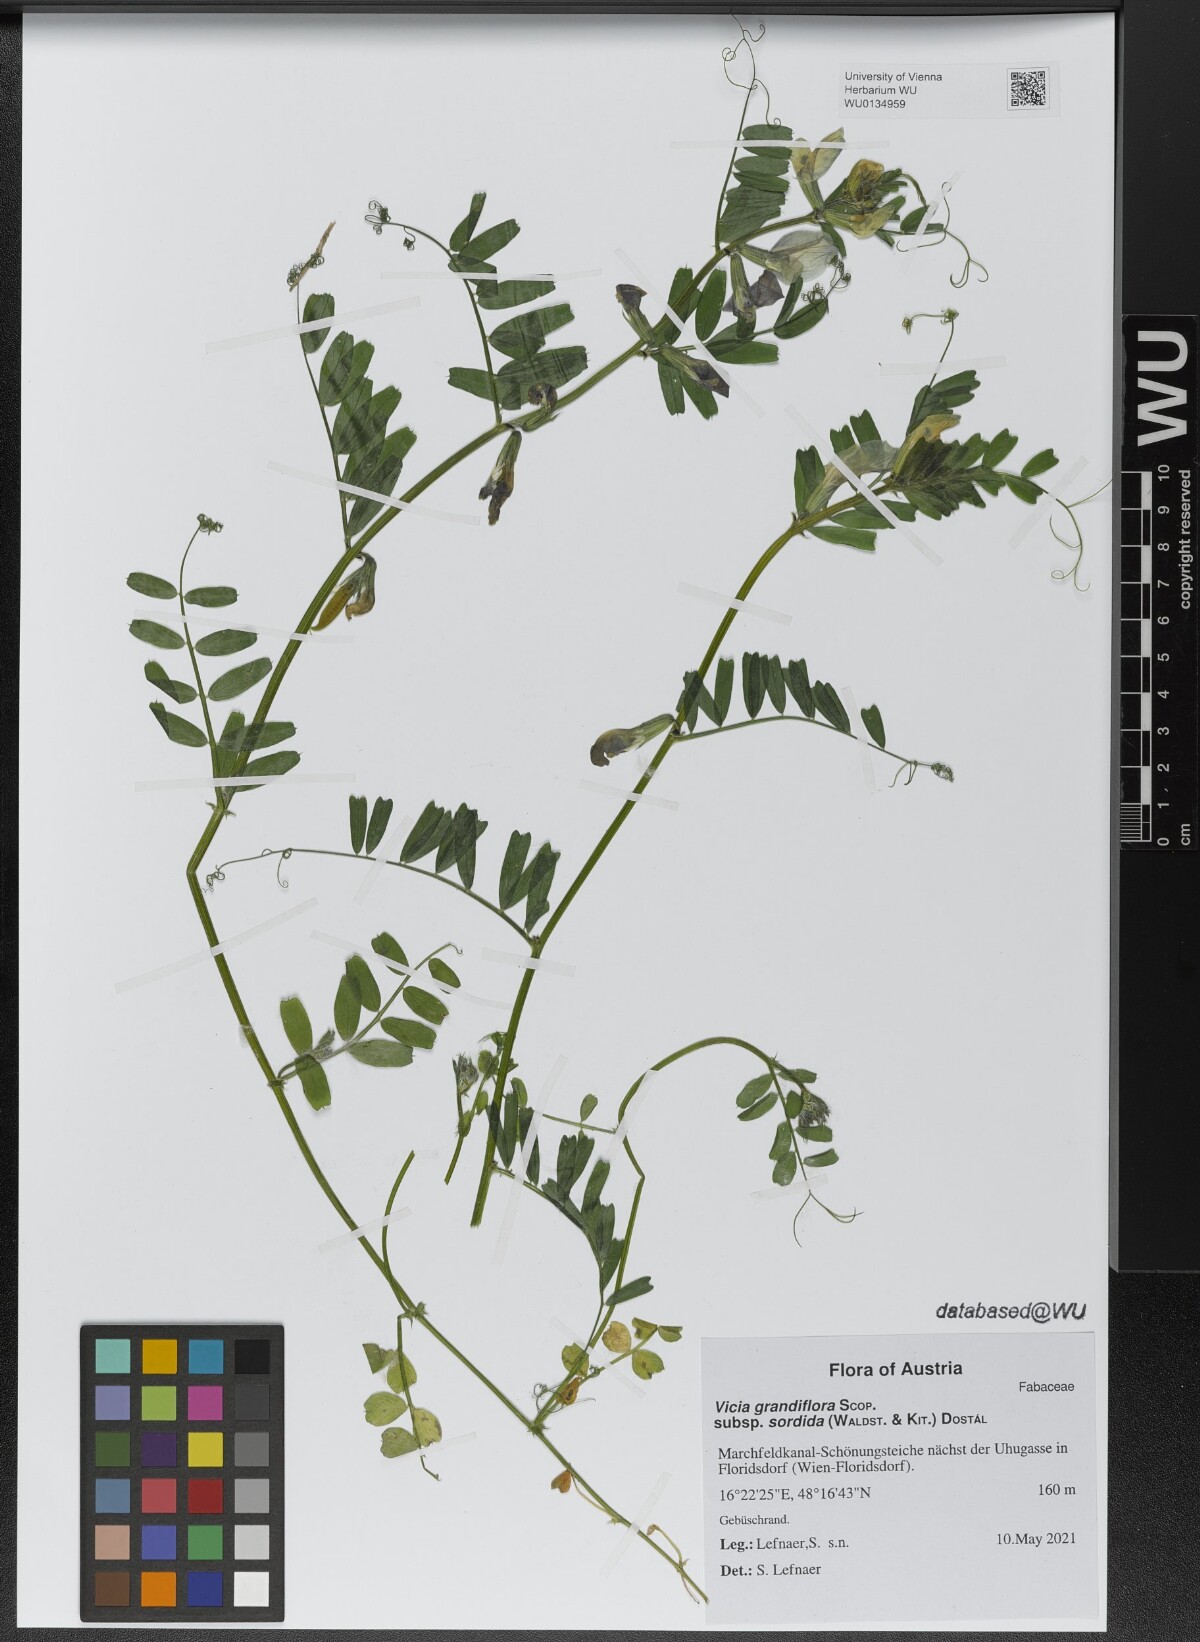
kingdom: Plantae
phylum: Tracheophyta
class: Magnoliopsida
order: Fabales
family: Fabaceae
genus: Vicia
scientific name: Vicia grandiflora
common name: Large yellow vetch
